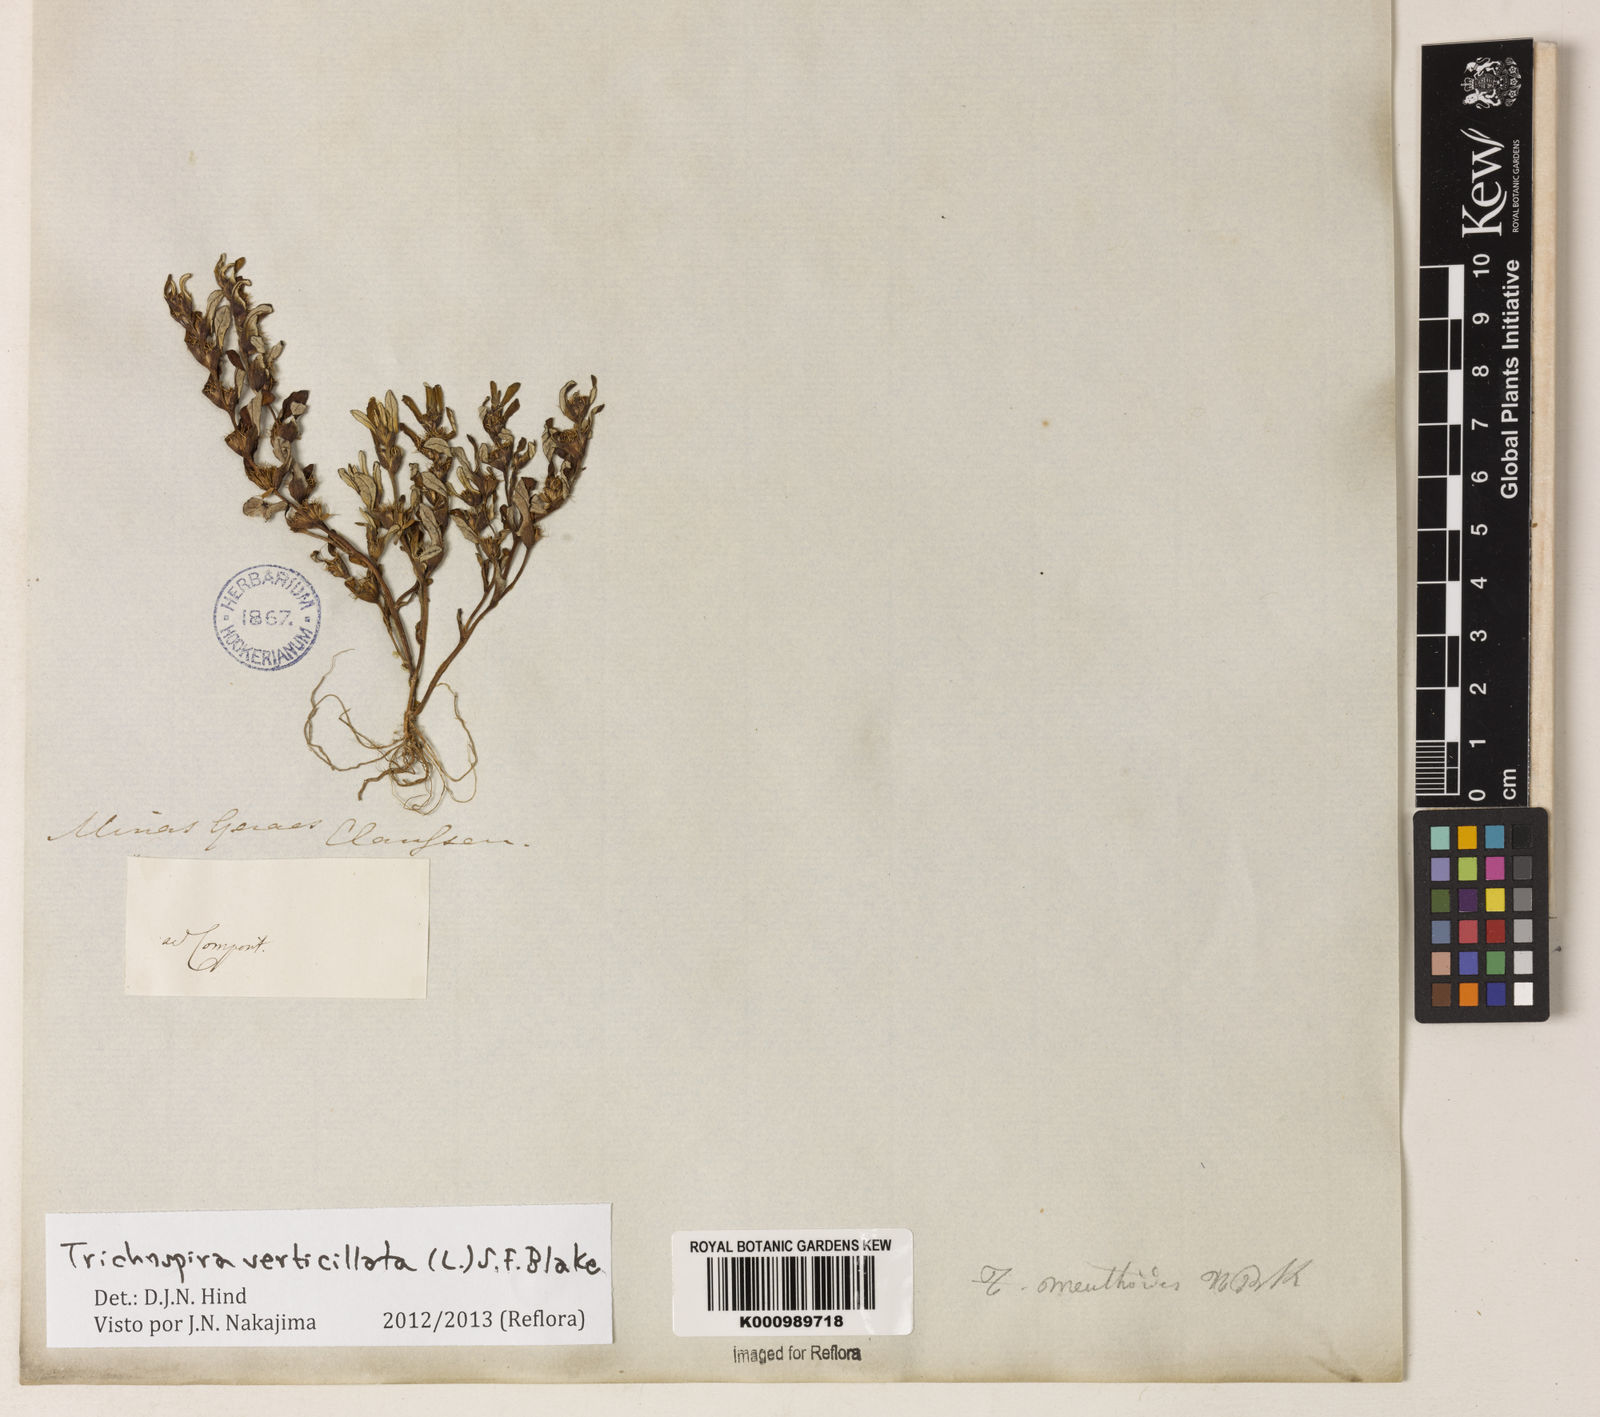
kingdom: Chromista
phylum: Ciliophora
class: Kinetofragminophora
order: Trichostomatida
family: Trichospiridae
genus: Trichospira
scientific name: Trichospira verticillata
